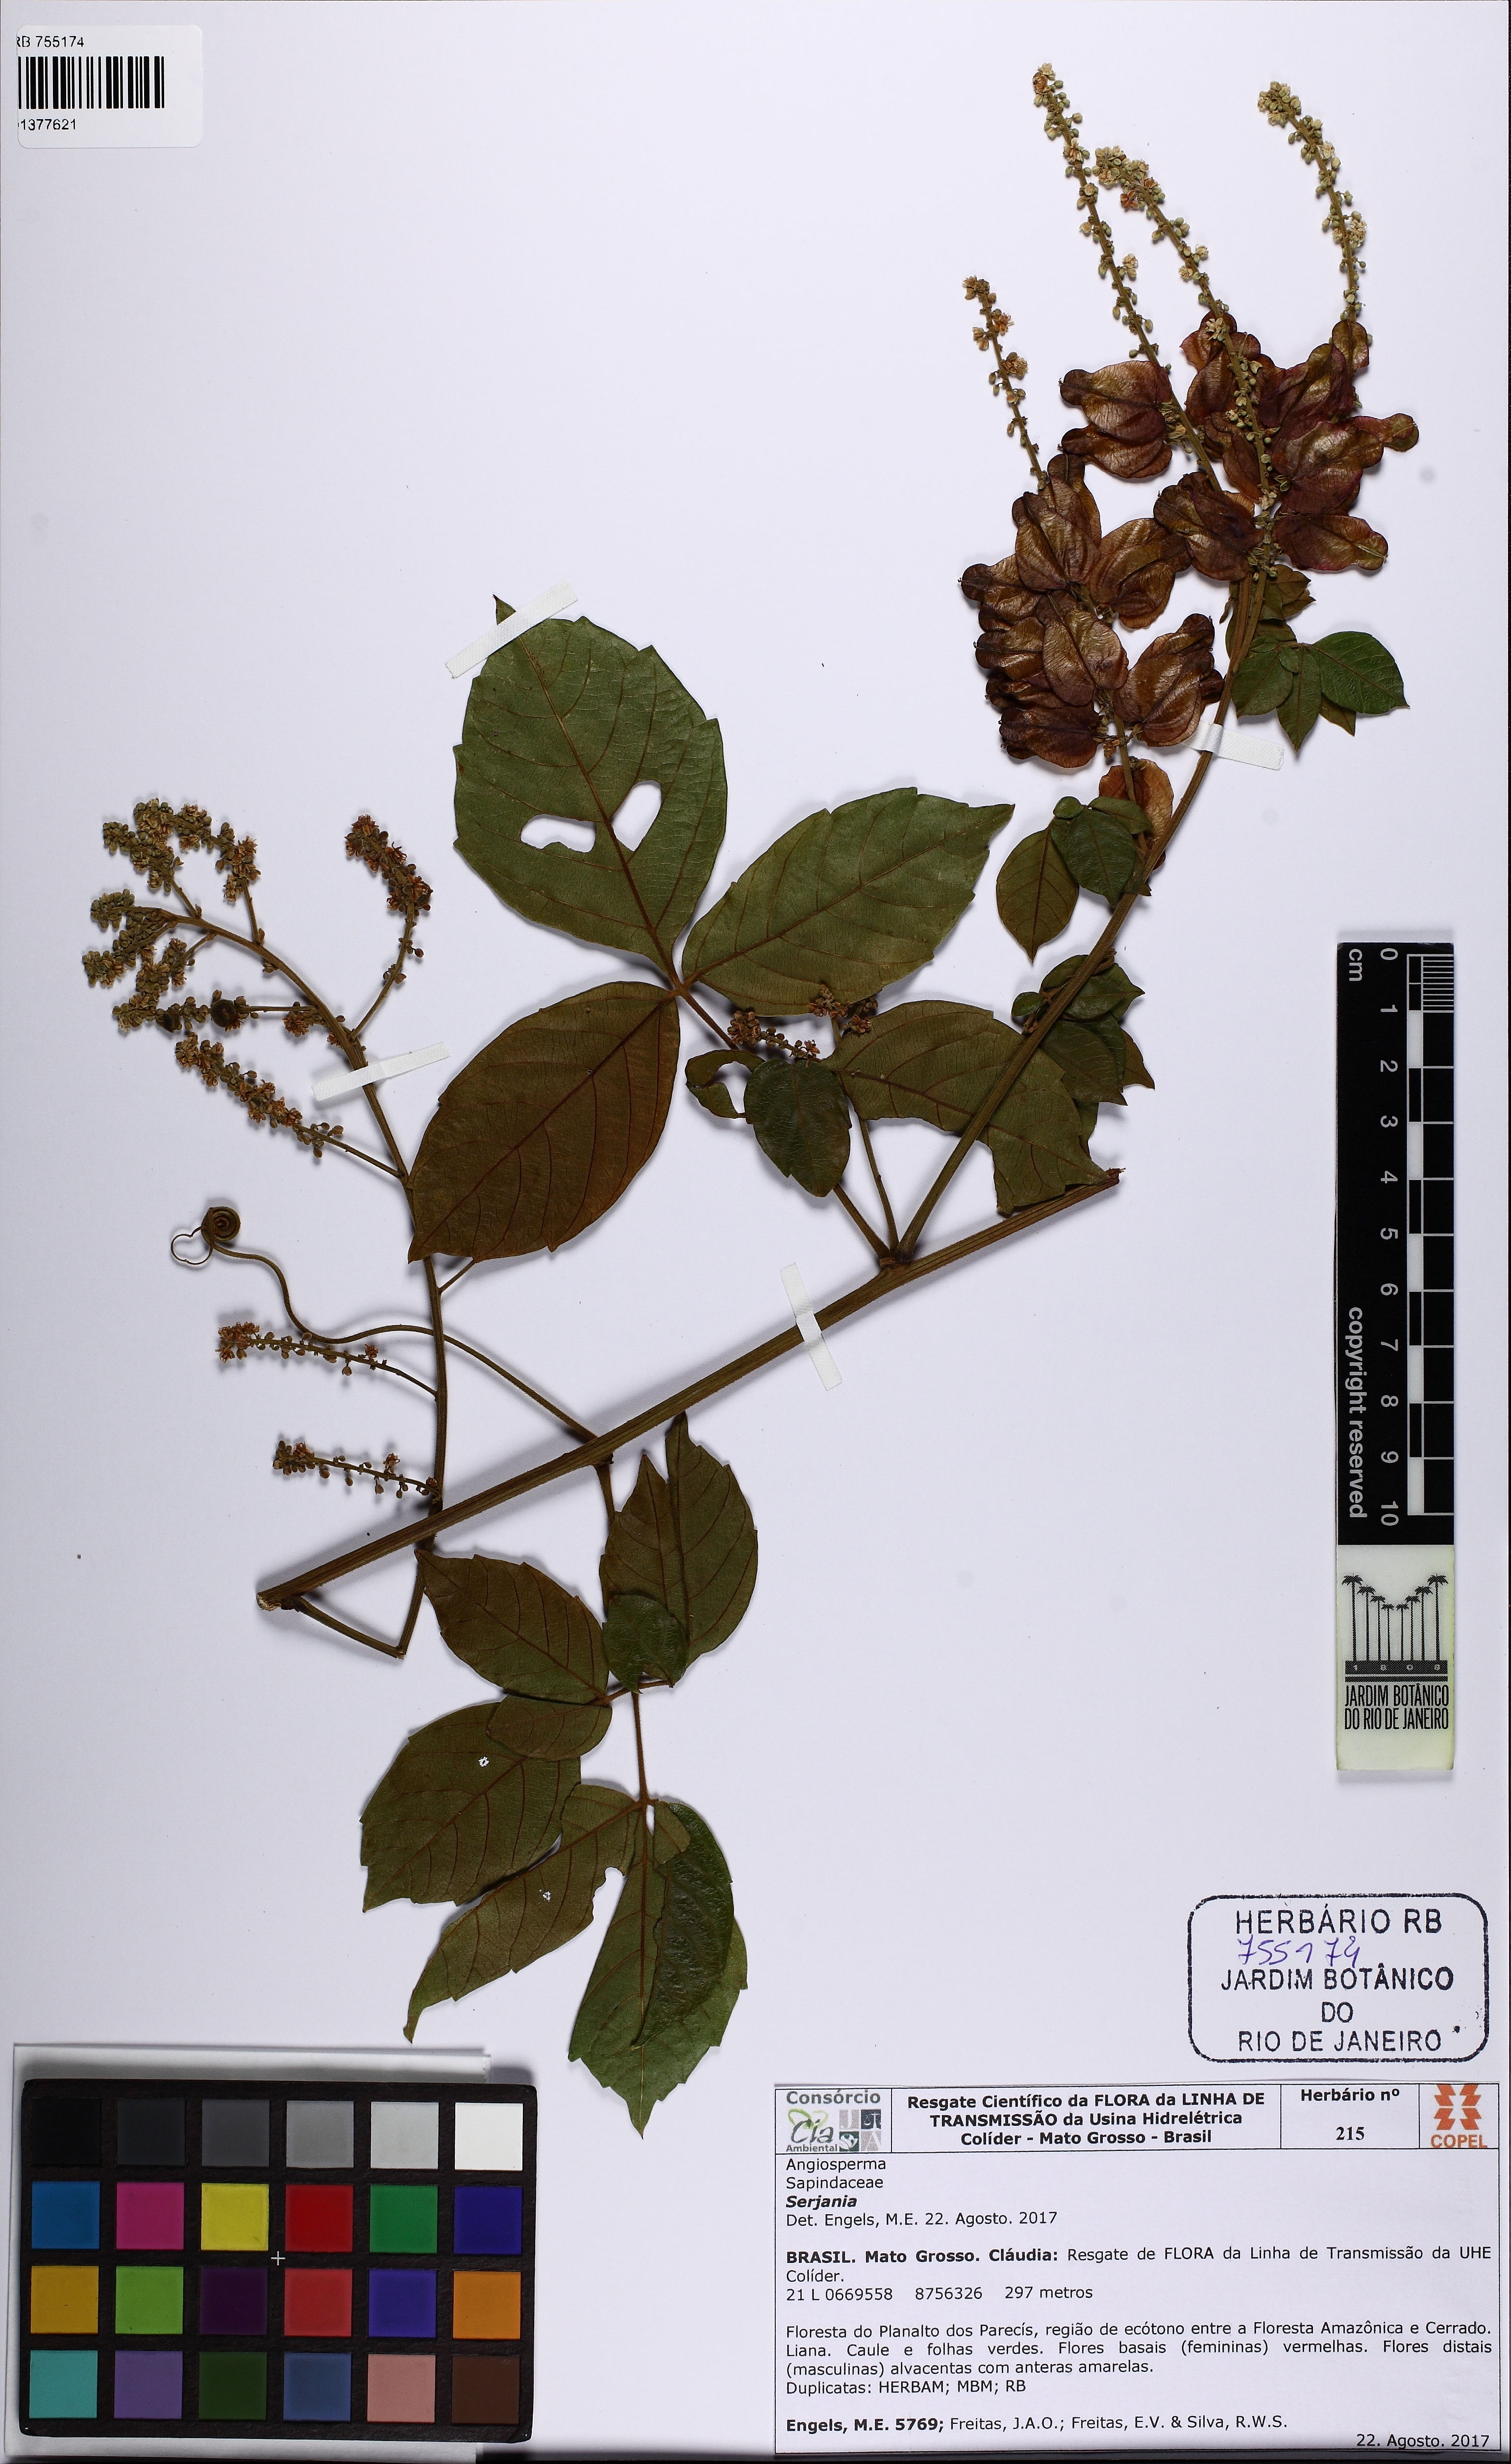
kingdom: Plantae
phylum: Tracheophyta
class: Magnoliopsida
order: Sapindales
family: Sapindaceae
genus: Serjania
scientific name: Serjania
